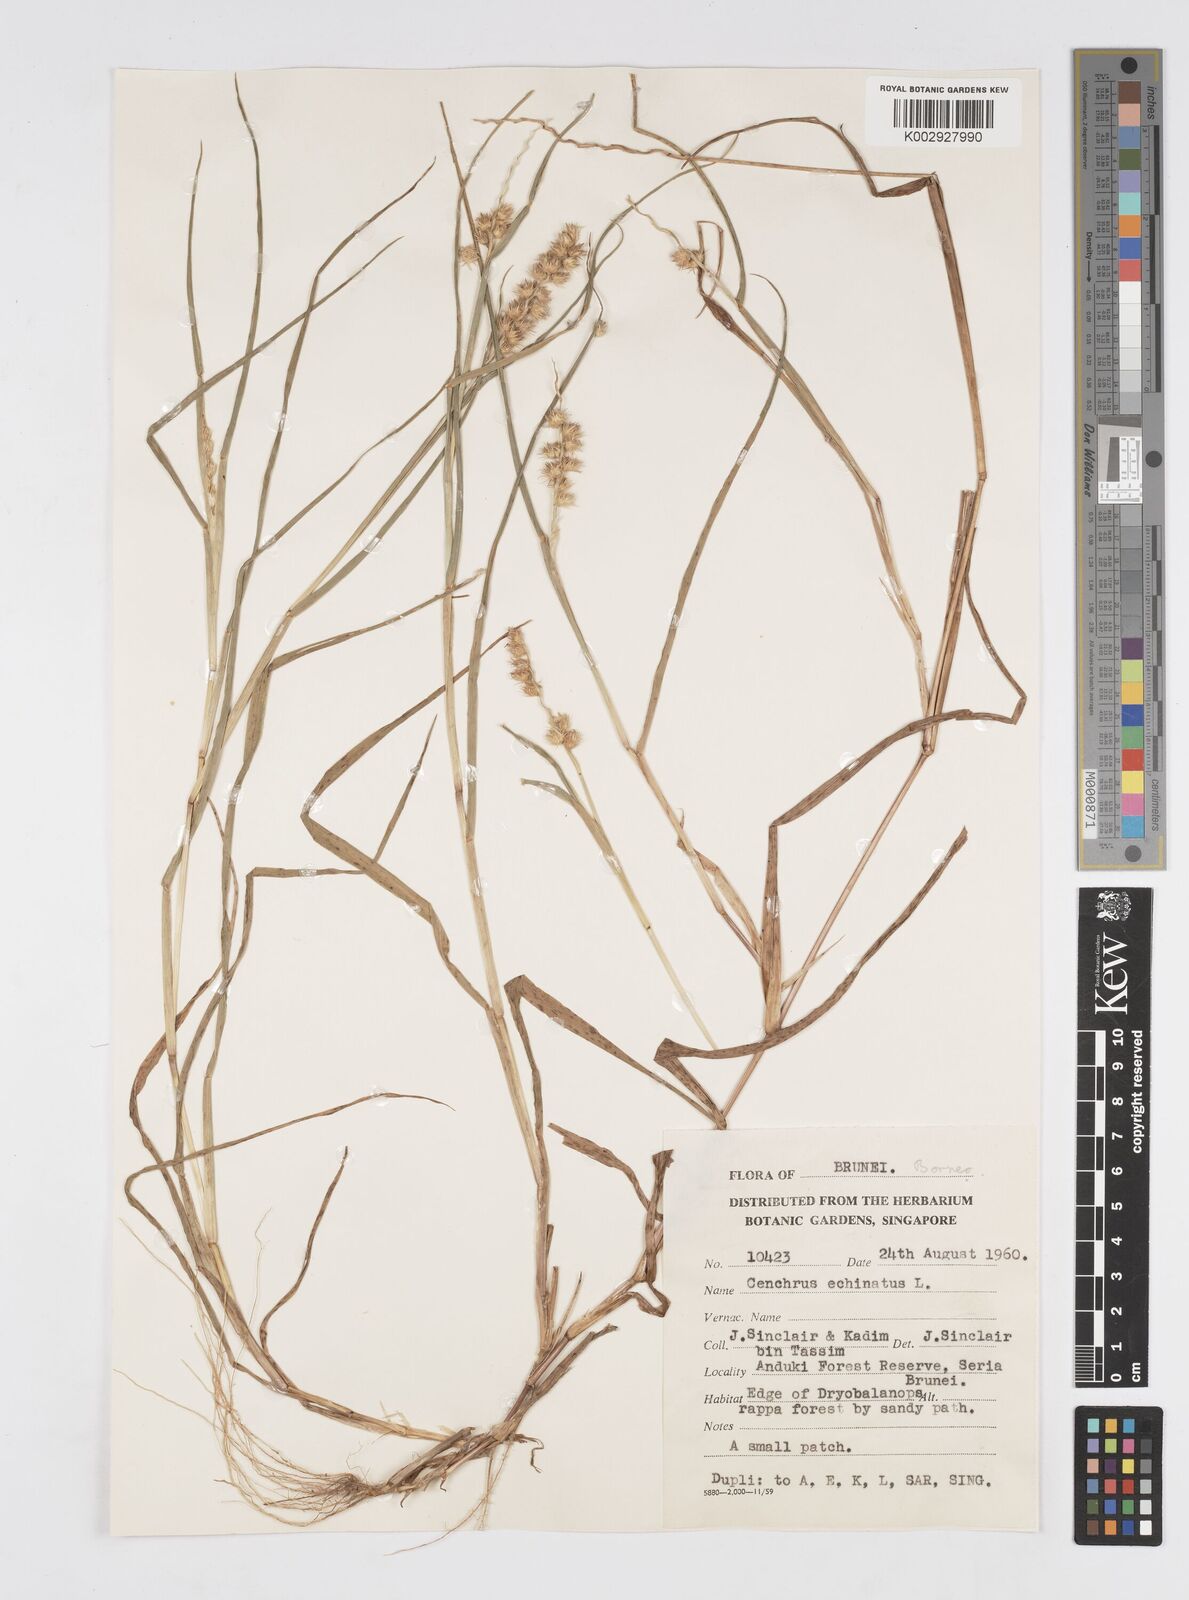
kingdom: Plantae
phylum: Tracheophyta
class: Liliopsida
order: Poales
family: Poaceae
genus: Cenchrus
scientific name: Cenchrus echinatus
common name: Southern sandbur
